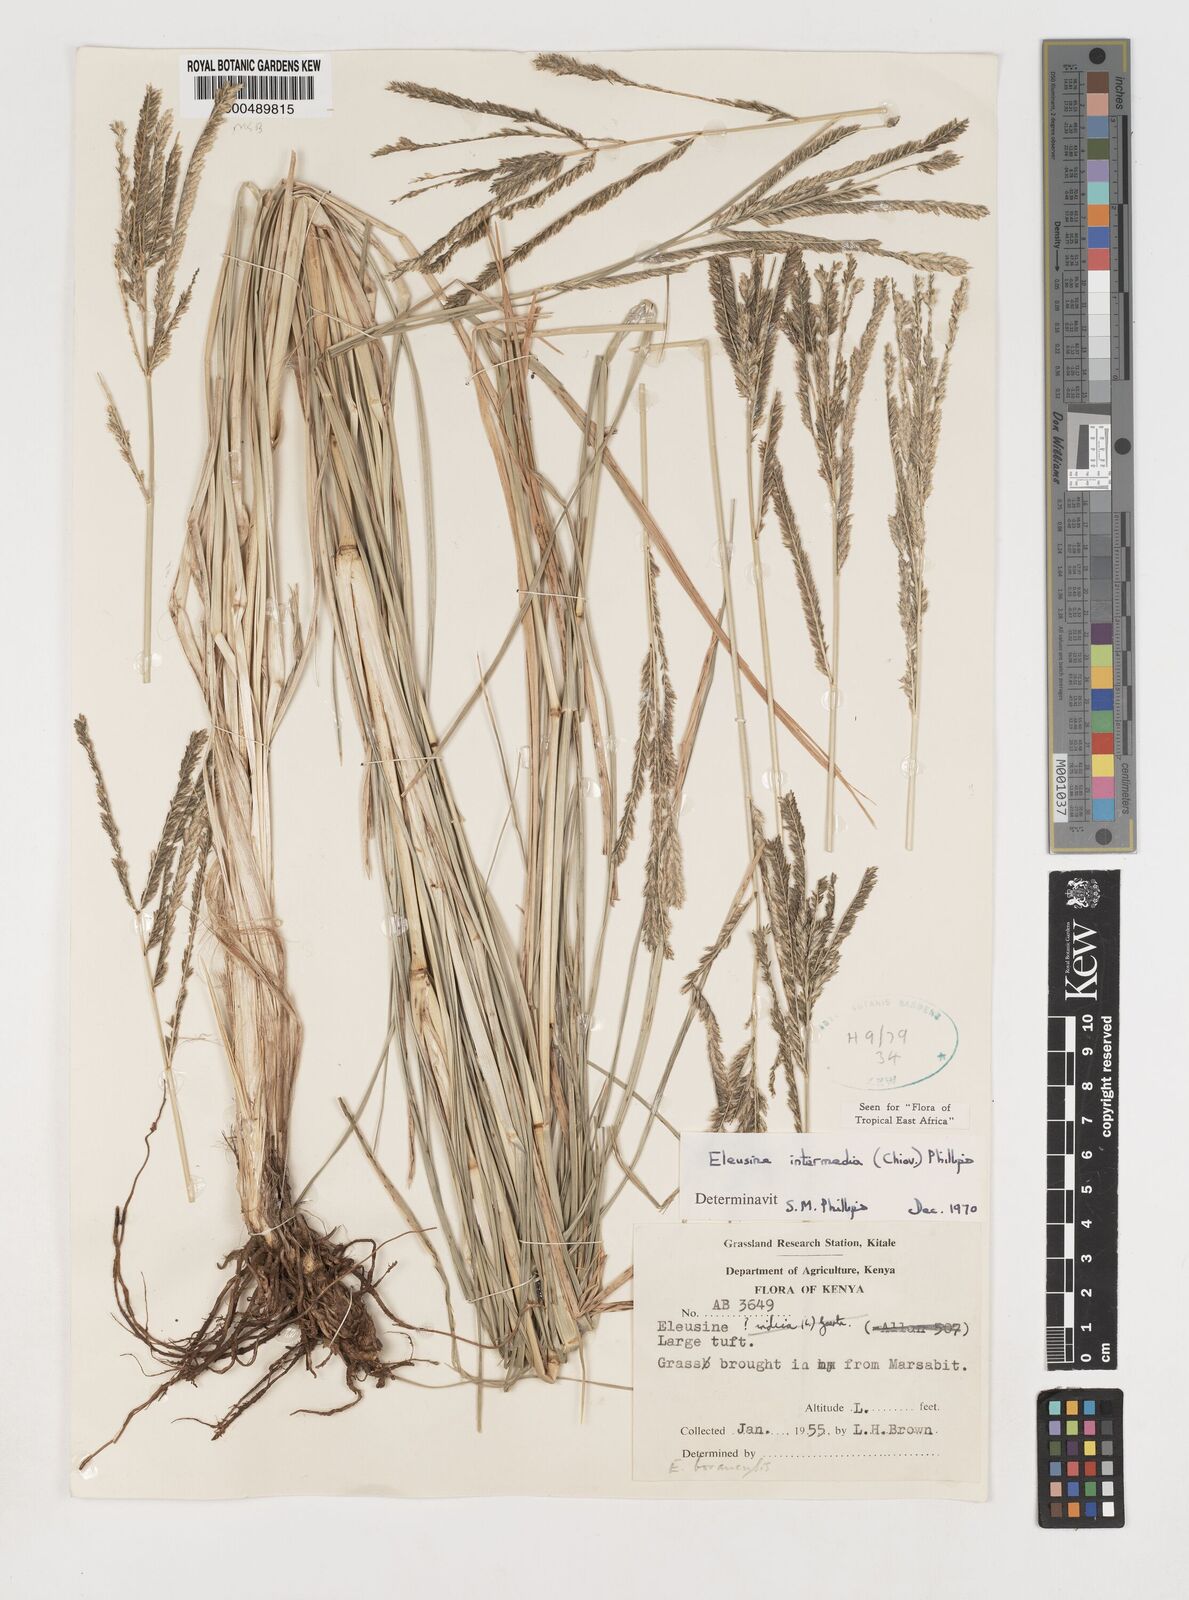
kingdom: Plantae
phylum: Tracheophyta
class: Liliopsida
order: Poales
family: Poaceae
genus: Eleusine
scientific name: Eleusine intermedia
